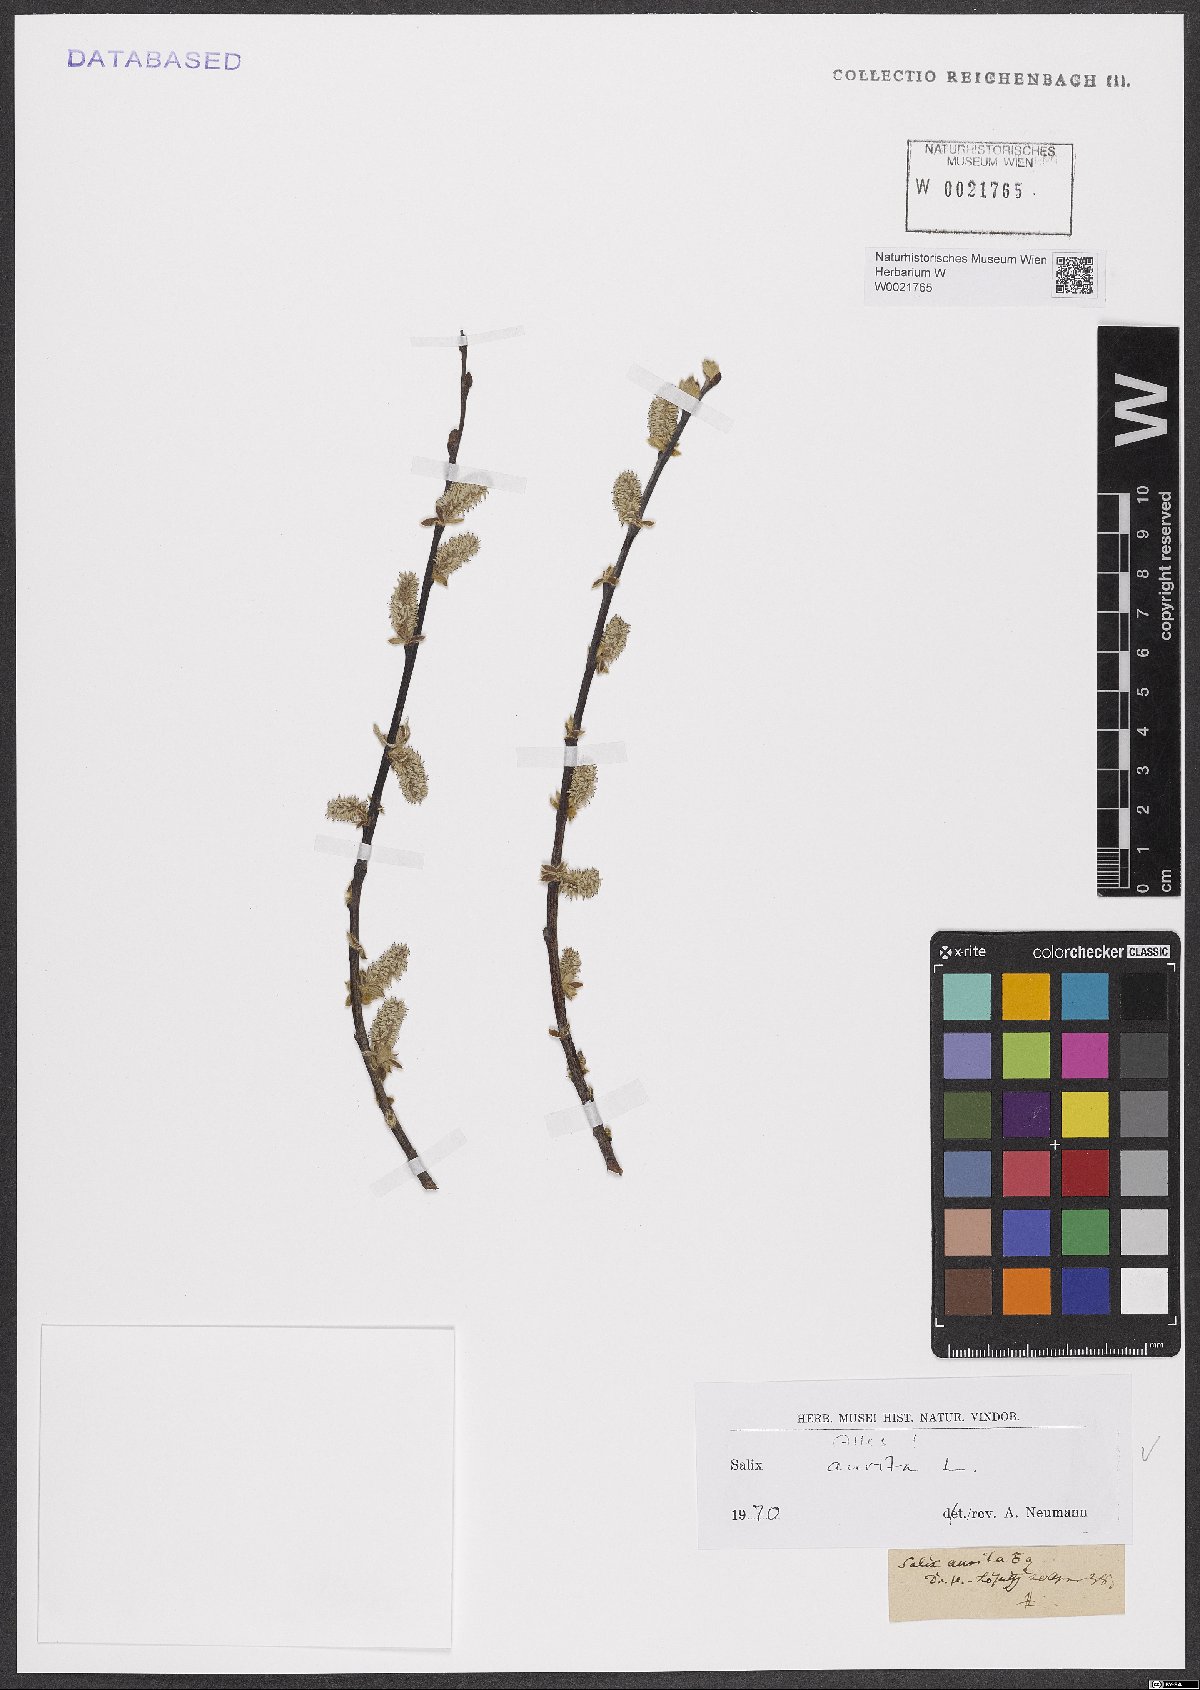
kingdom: Plantae
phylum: Tracheophyta
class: Magnoliopsida
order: Malpighiales
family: Salicaceae
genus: Salix
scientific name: Salix aurita
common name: Eared willow
